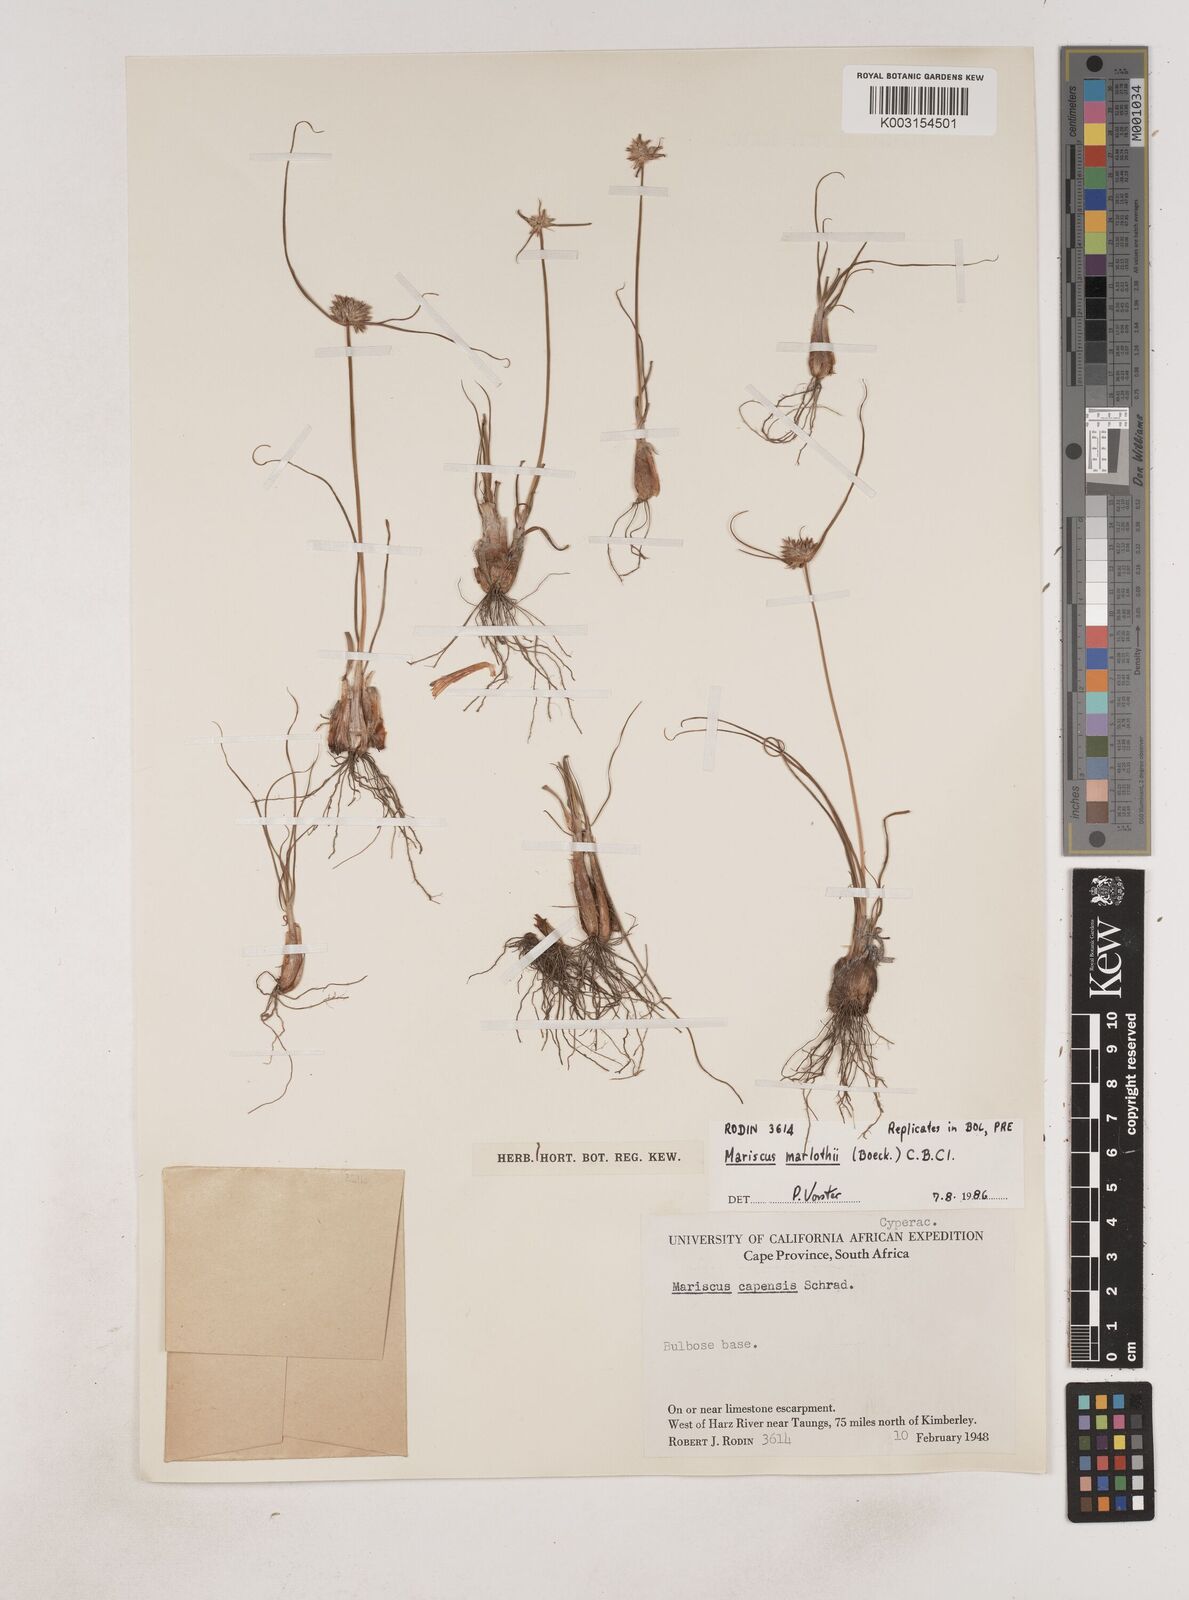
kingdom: Plantae
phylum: Tracheophyta
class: Liliopsida
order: Poales
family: Cyperaceae
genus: Cyperus
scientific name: Cyperus capensis
